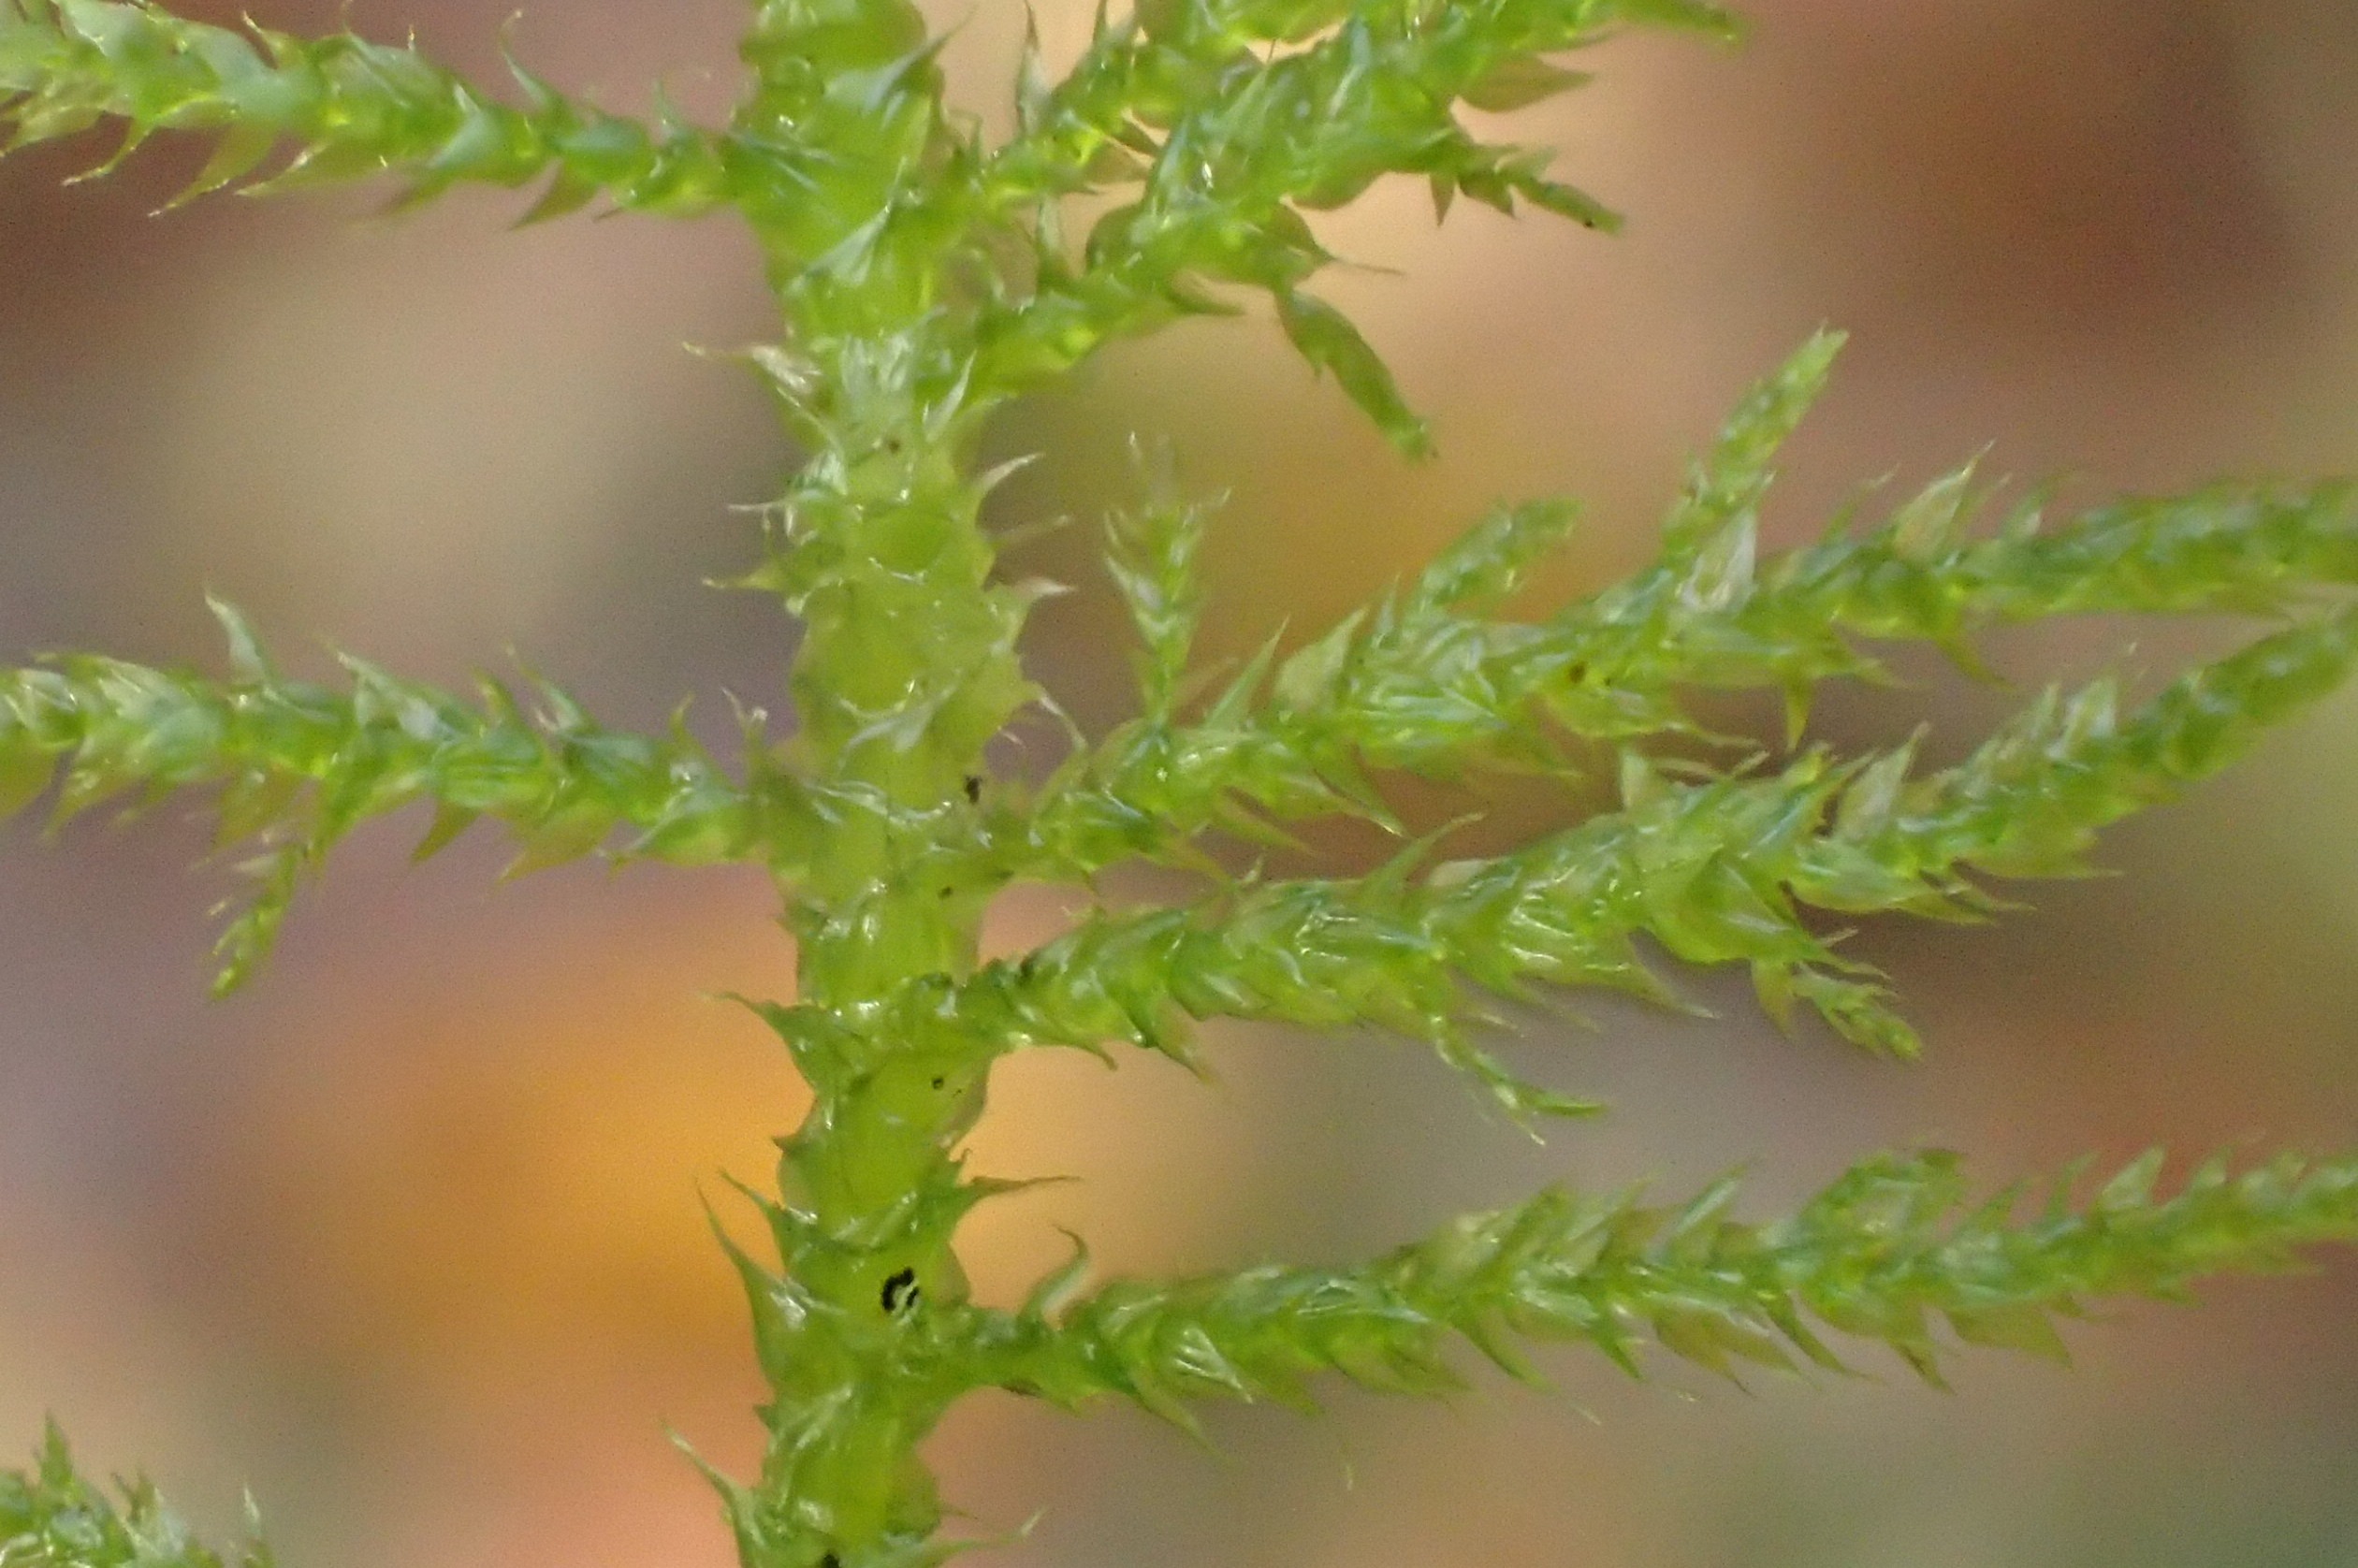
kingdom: Plantae
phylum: Bryophyta
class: Bryopsida
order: Hypnales
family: Brachytheciaceae
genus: Kindbergia
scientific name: Kindbergia praelonga
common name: Forskelligbladet vortetand
